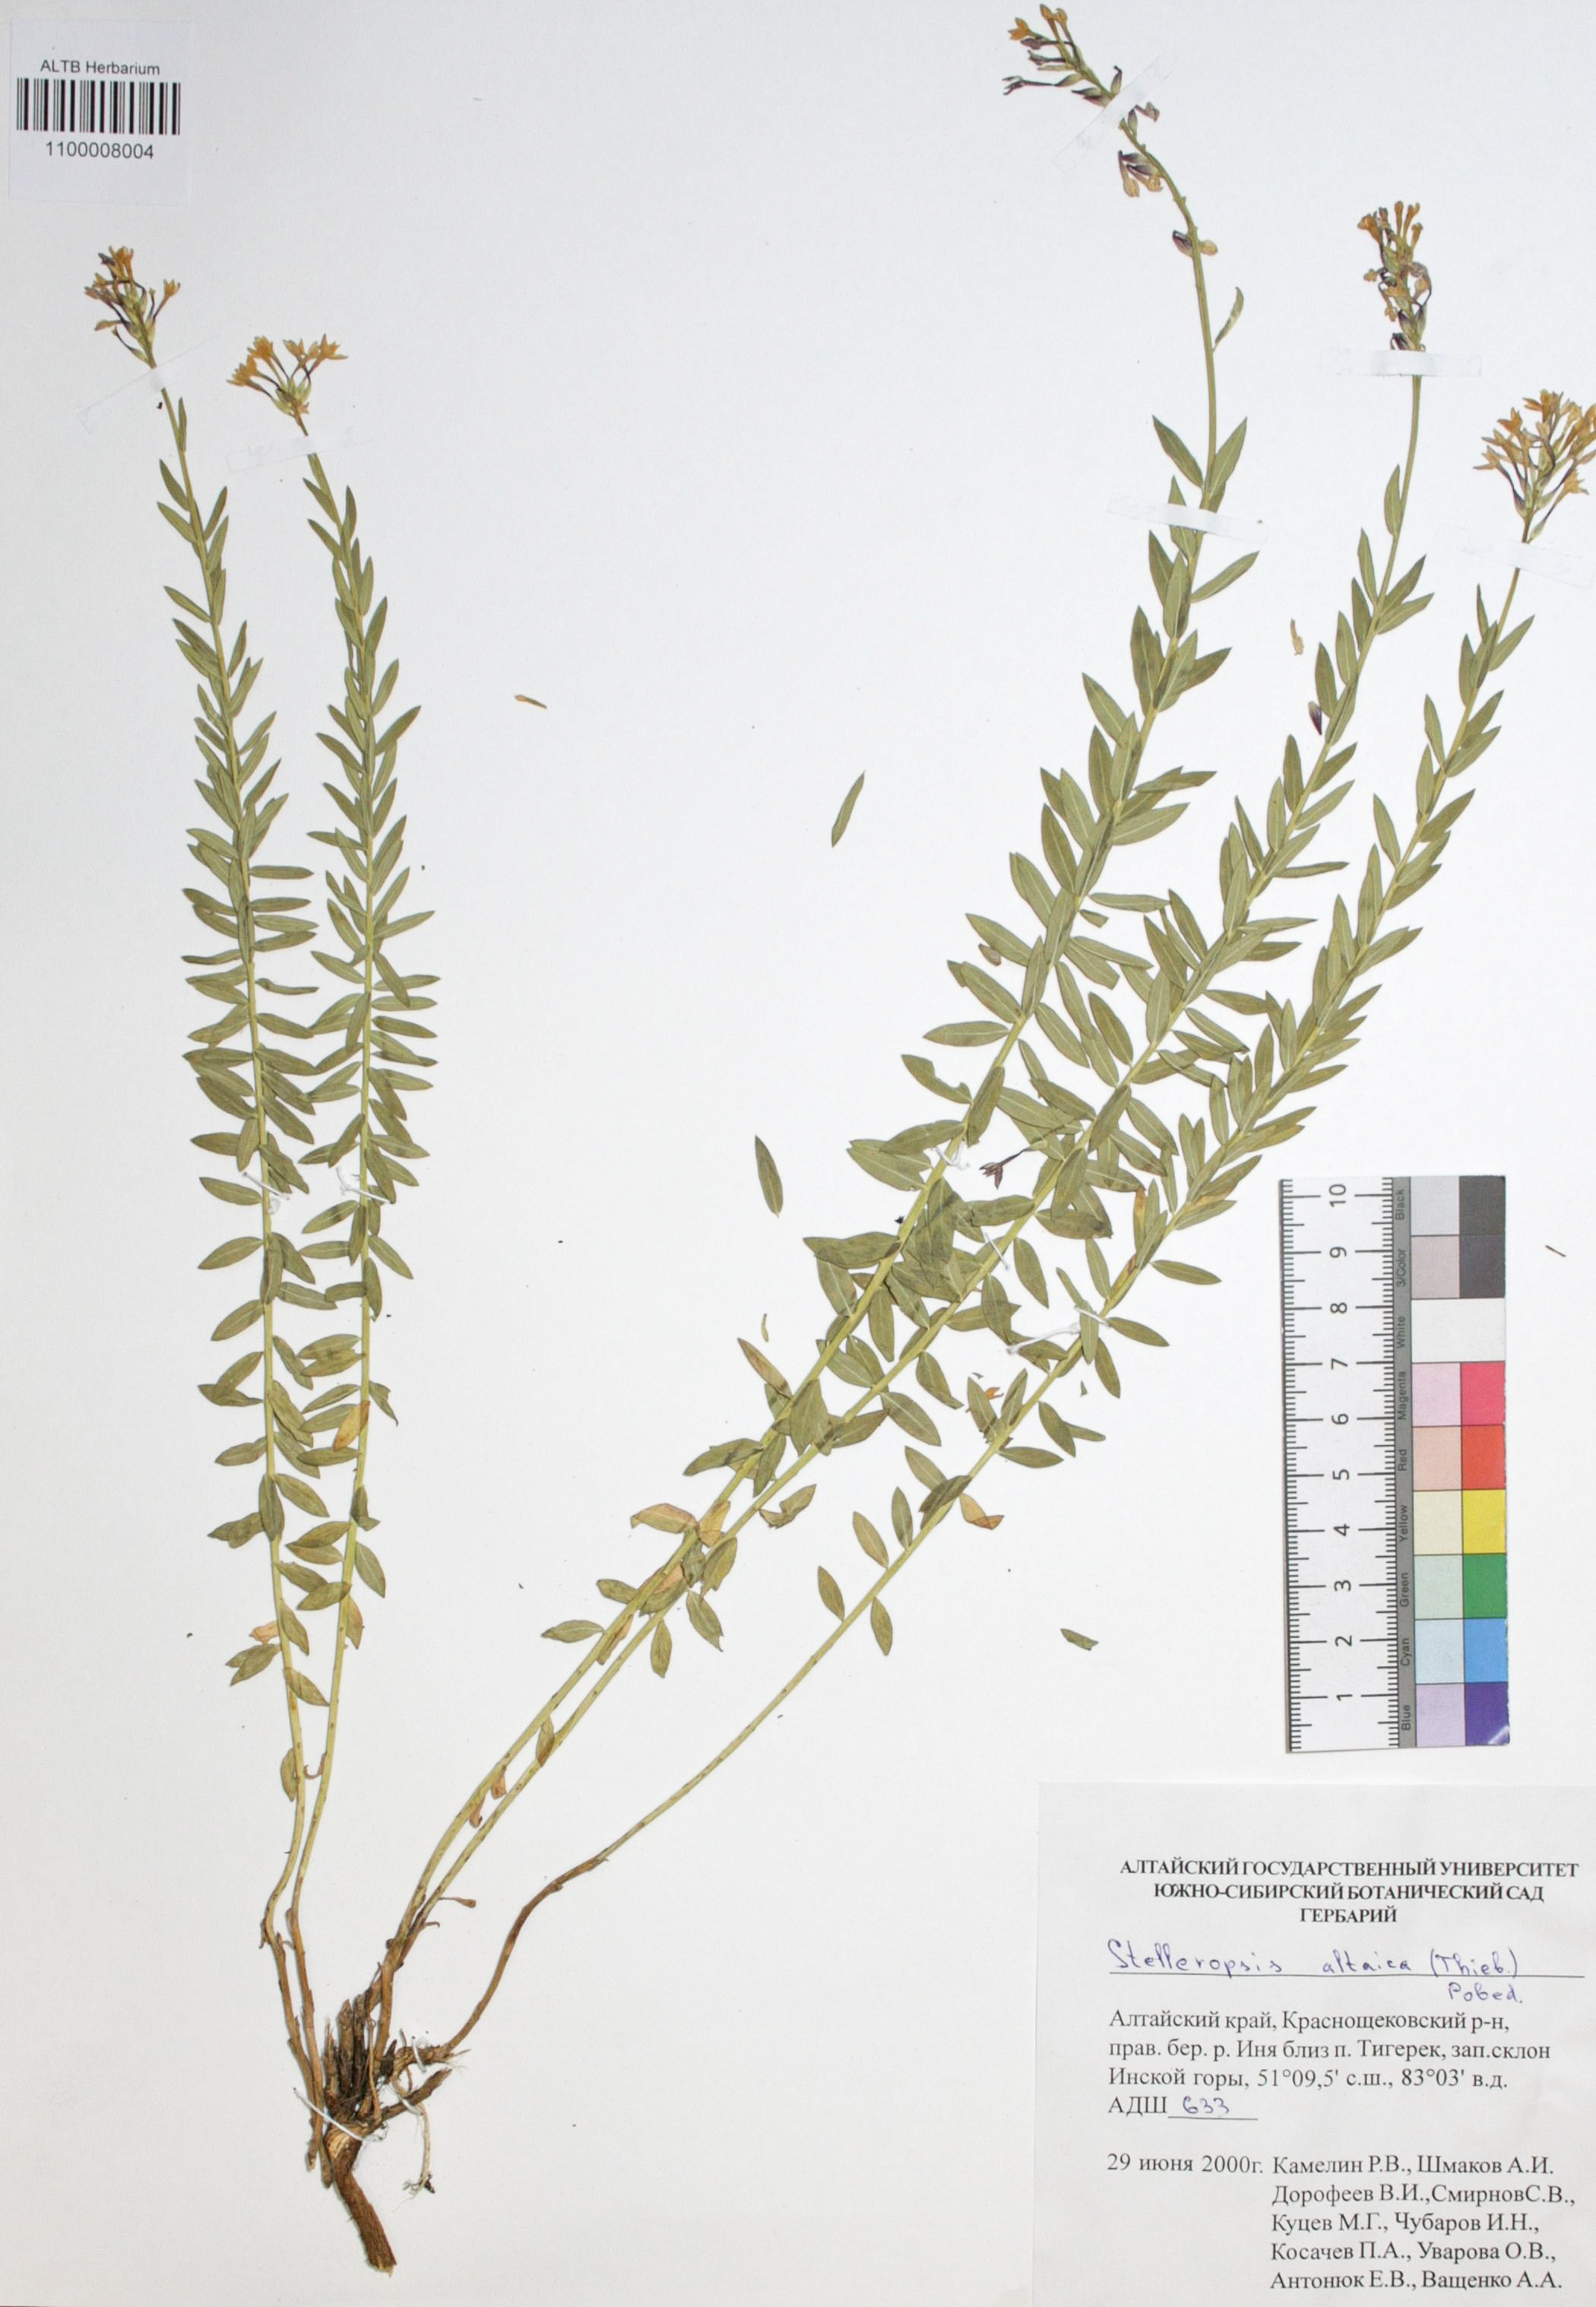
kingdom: Plantae
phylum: Tracheophyta
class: Magnoliopsida
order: Malvales
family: Thymelaeaceae
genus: Diarthron
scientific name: Diarthron altaicum
